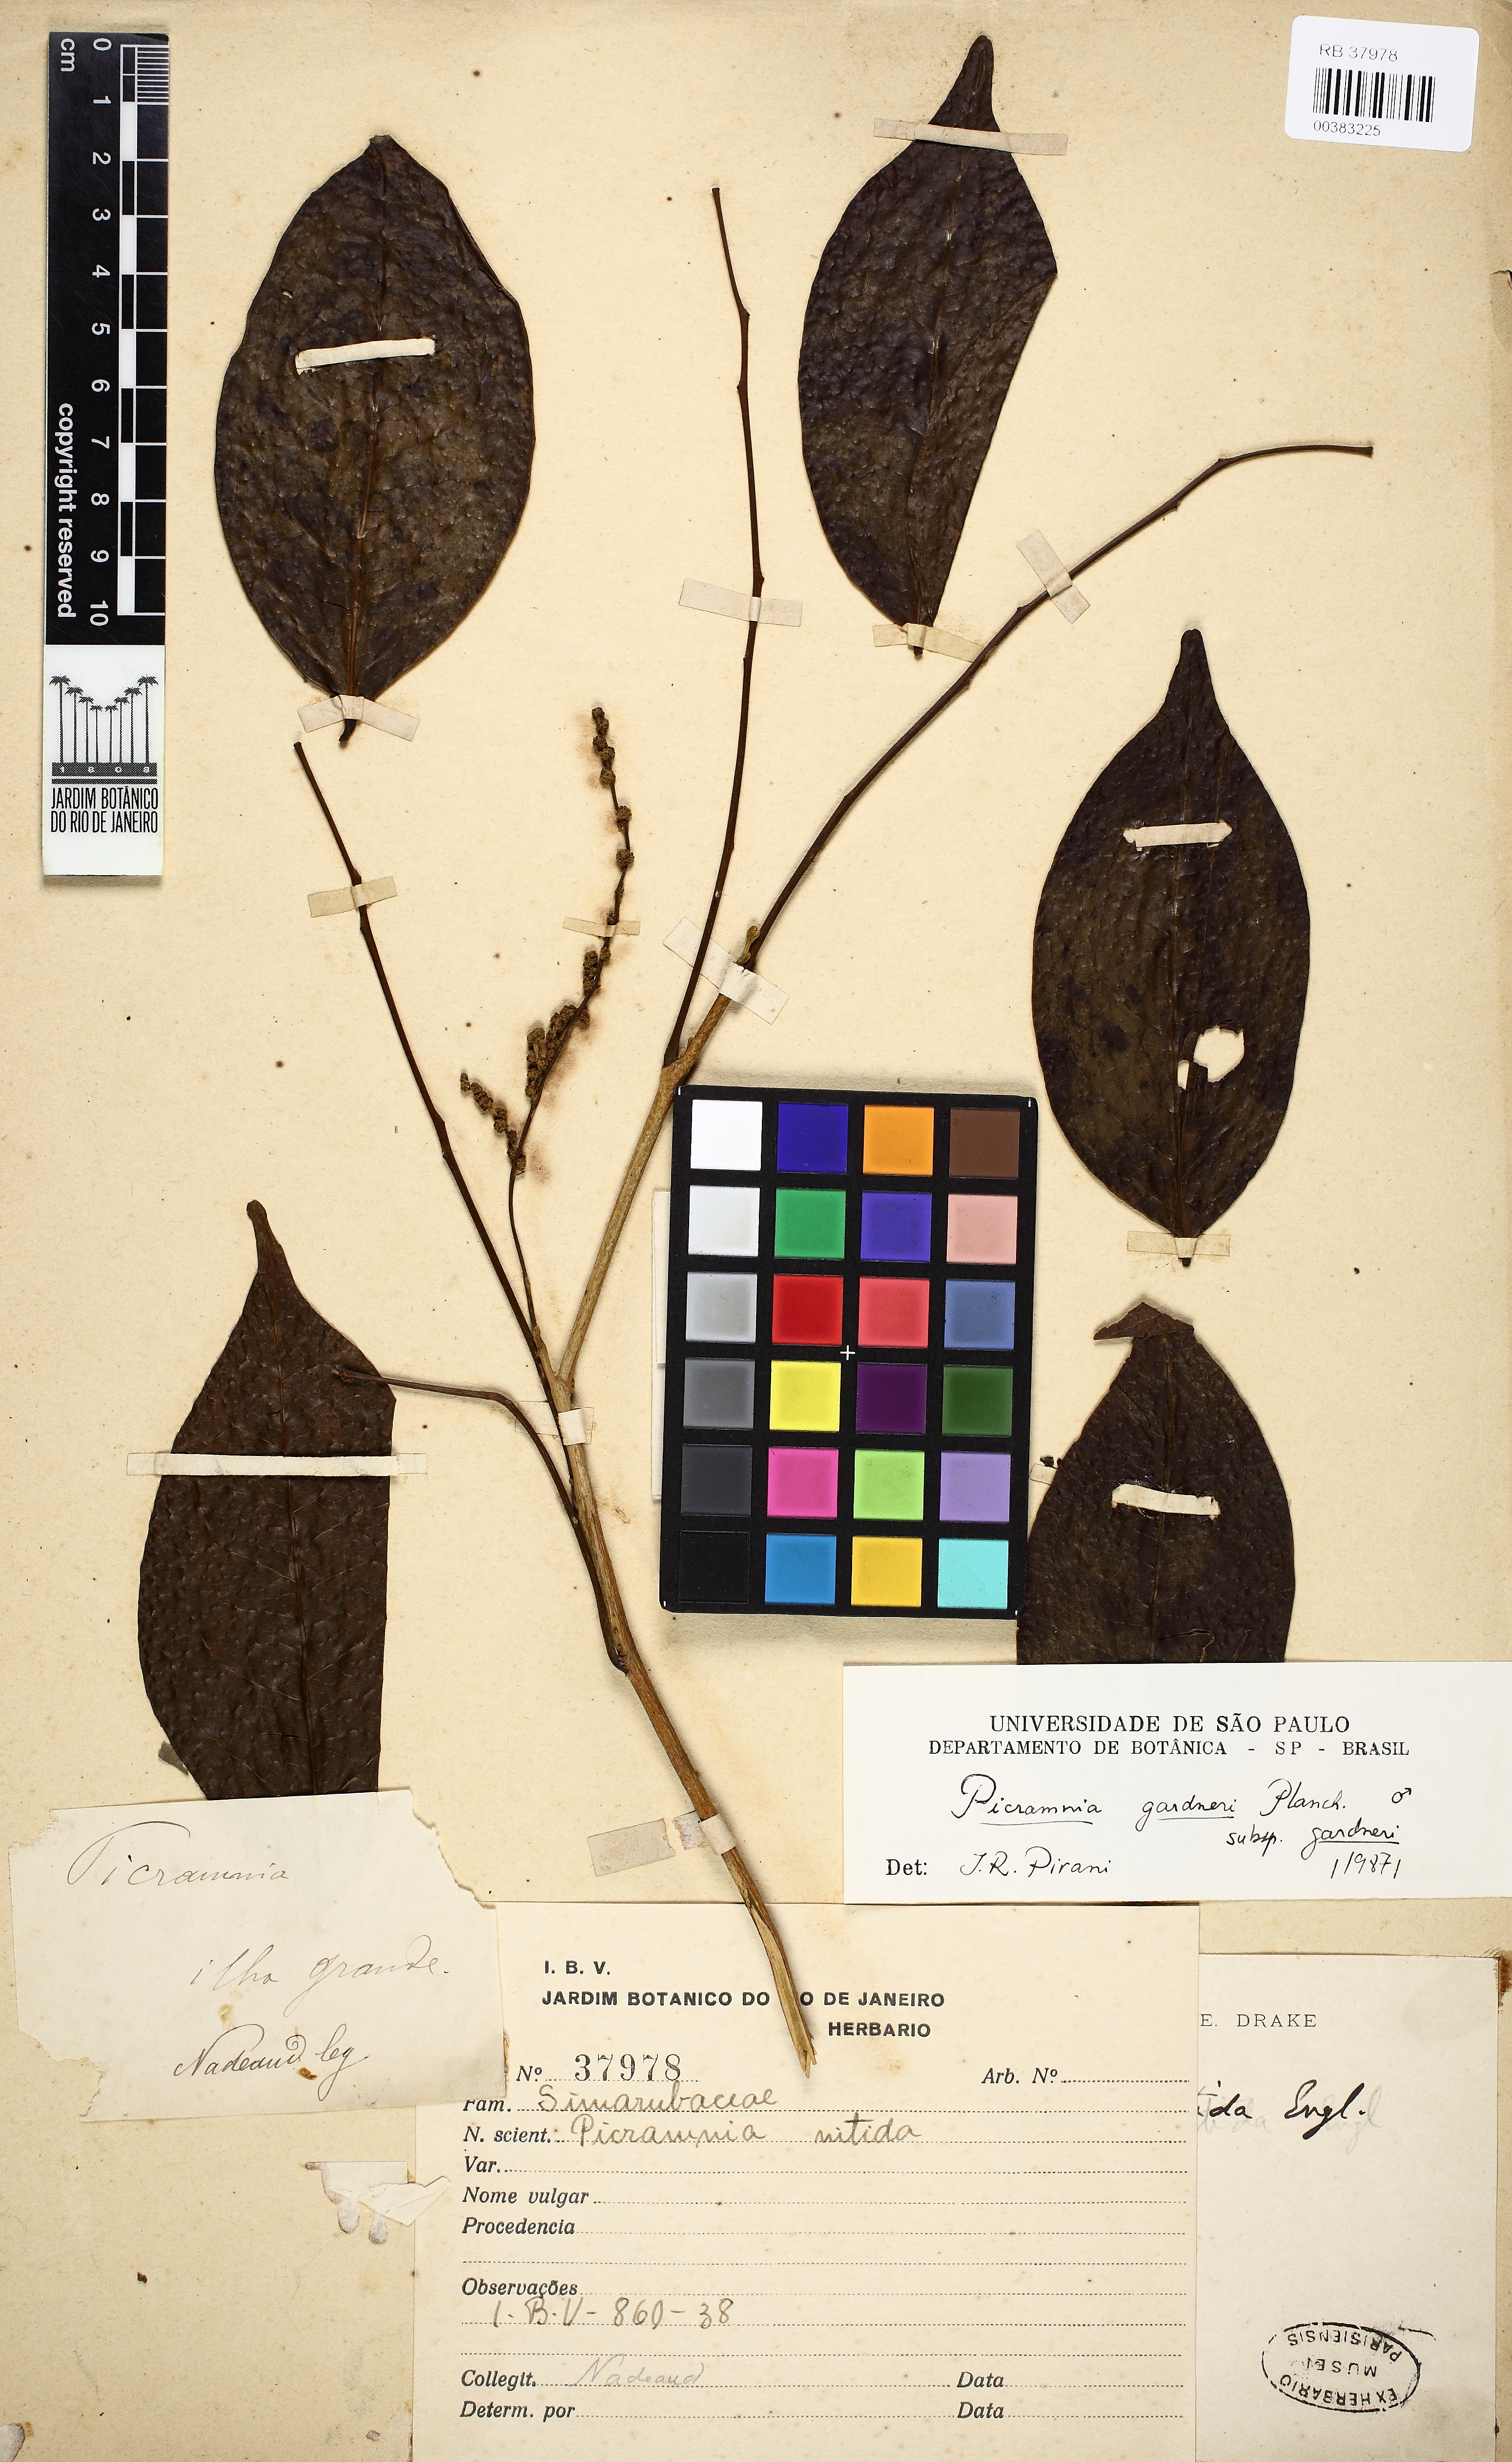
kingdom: Plantae
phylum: Tracheophyta
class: Magnoliopsida
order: Picramniales
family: Picramniaceae
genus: Picramnia
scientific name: Picramnia gardneri
